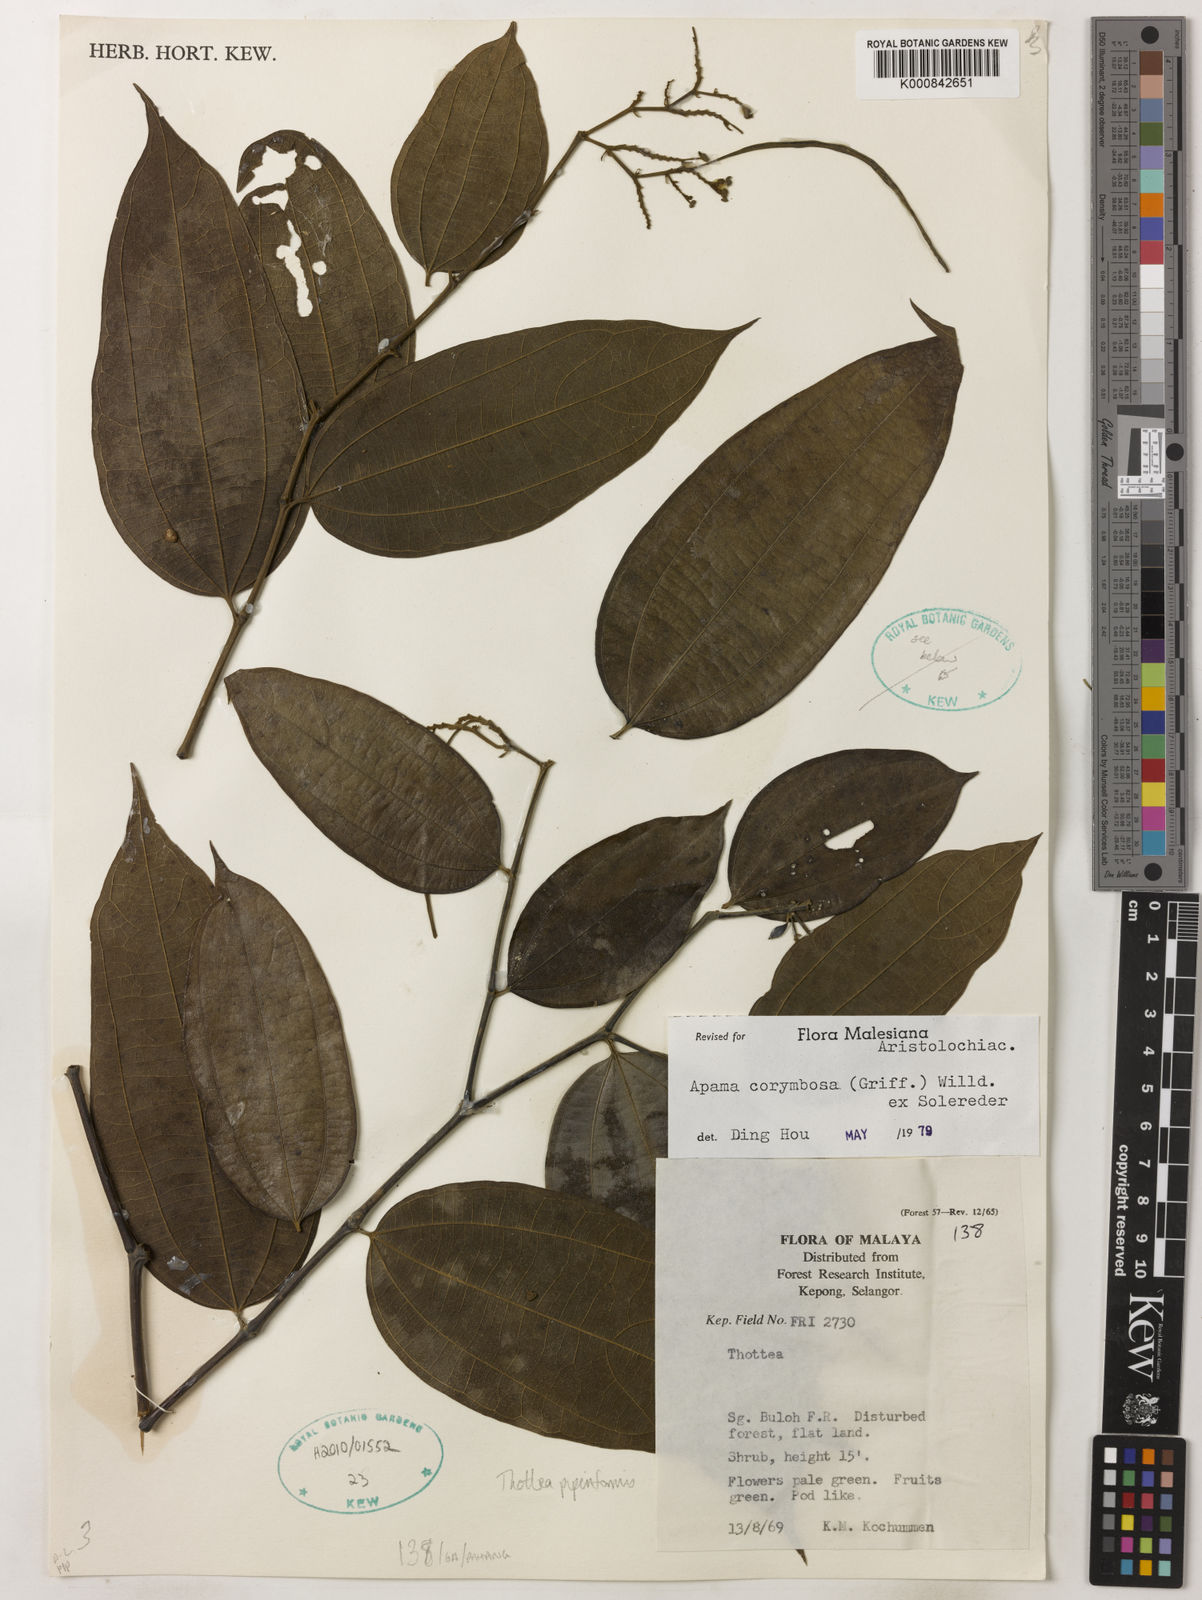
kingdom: Plantae
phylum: Tracheophyta
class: Magnoliopsida
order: Piperales
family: Aristolochiaceae
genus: Thottea
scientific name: Thottea piperiformis
